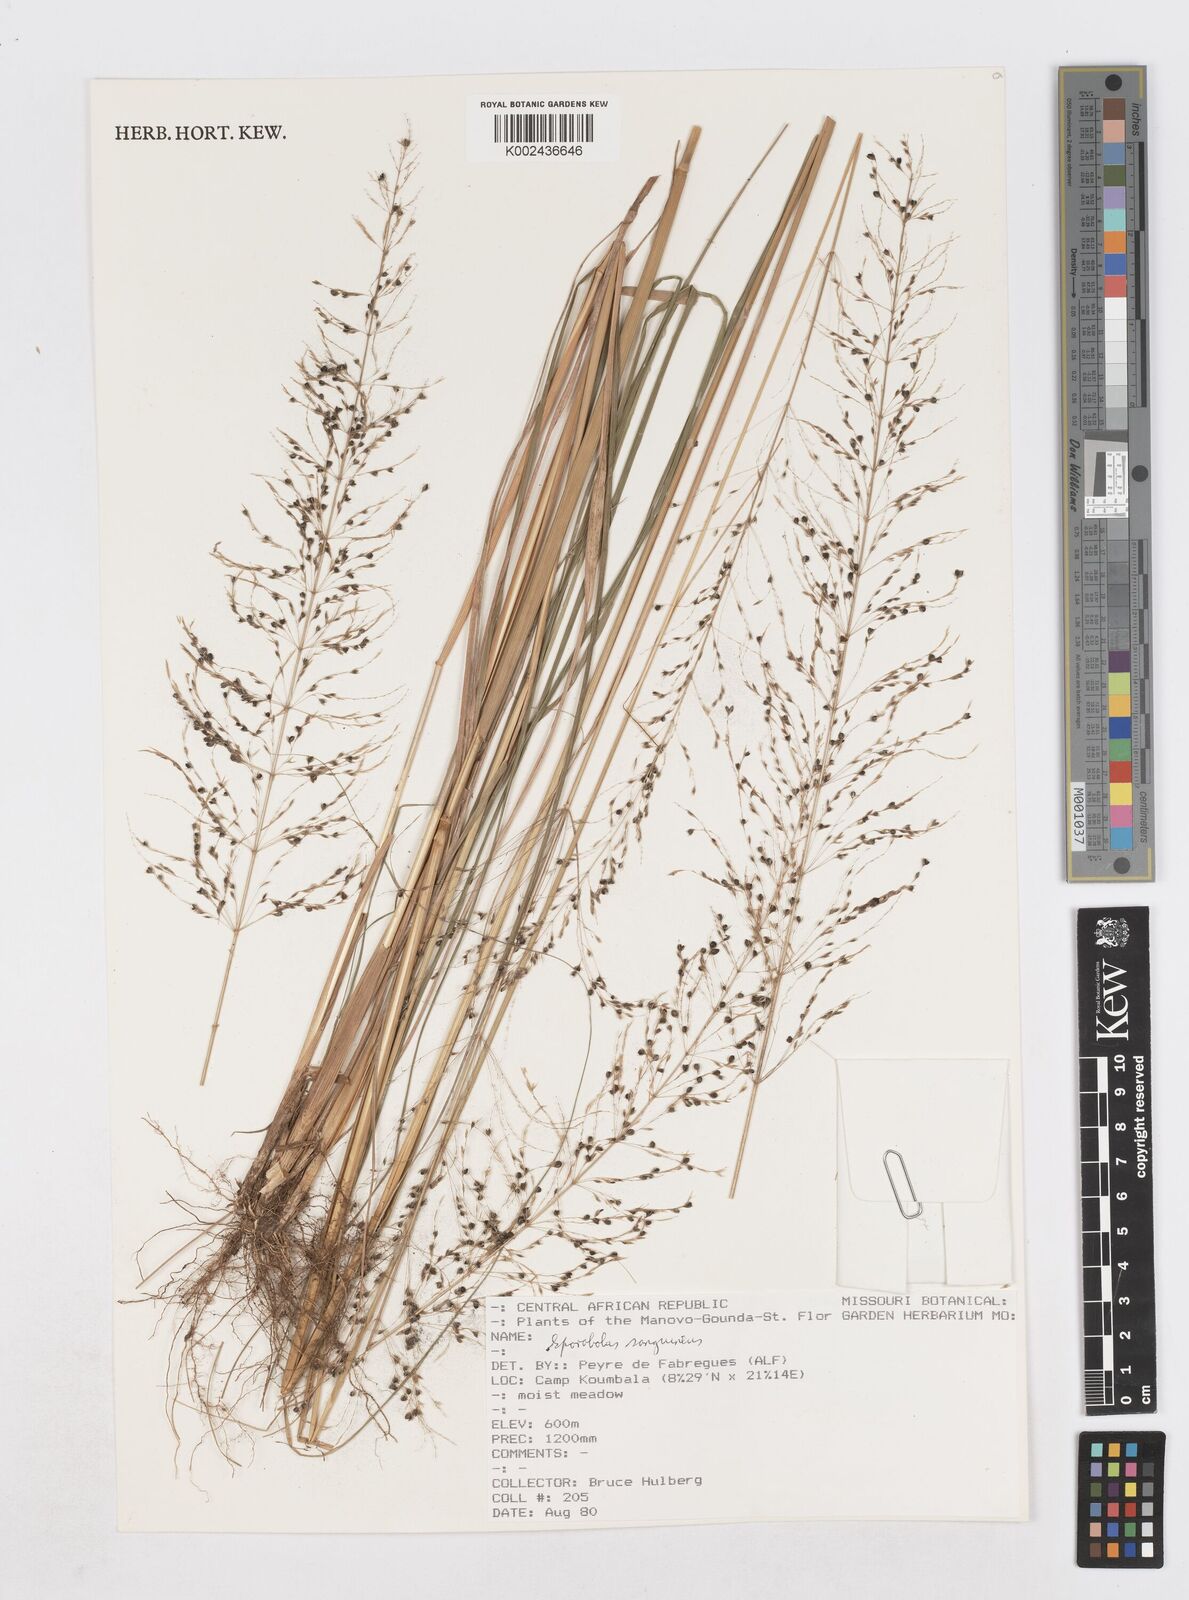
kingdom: Plantae
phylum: Tracheophyta
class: Liliopsida
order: Poales
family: Poaceae
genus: Sporobolus
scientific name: Sporobolus sanguineus
